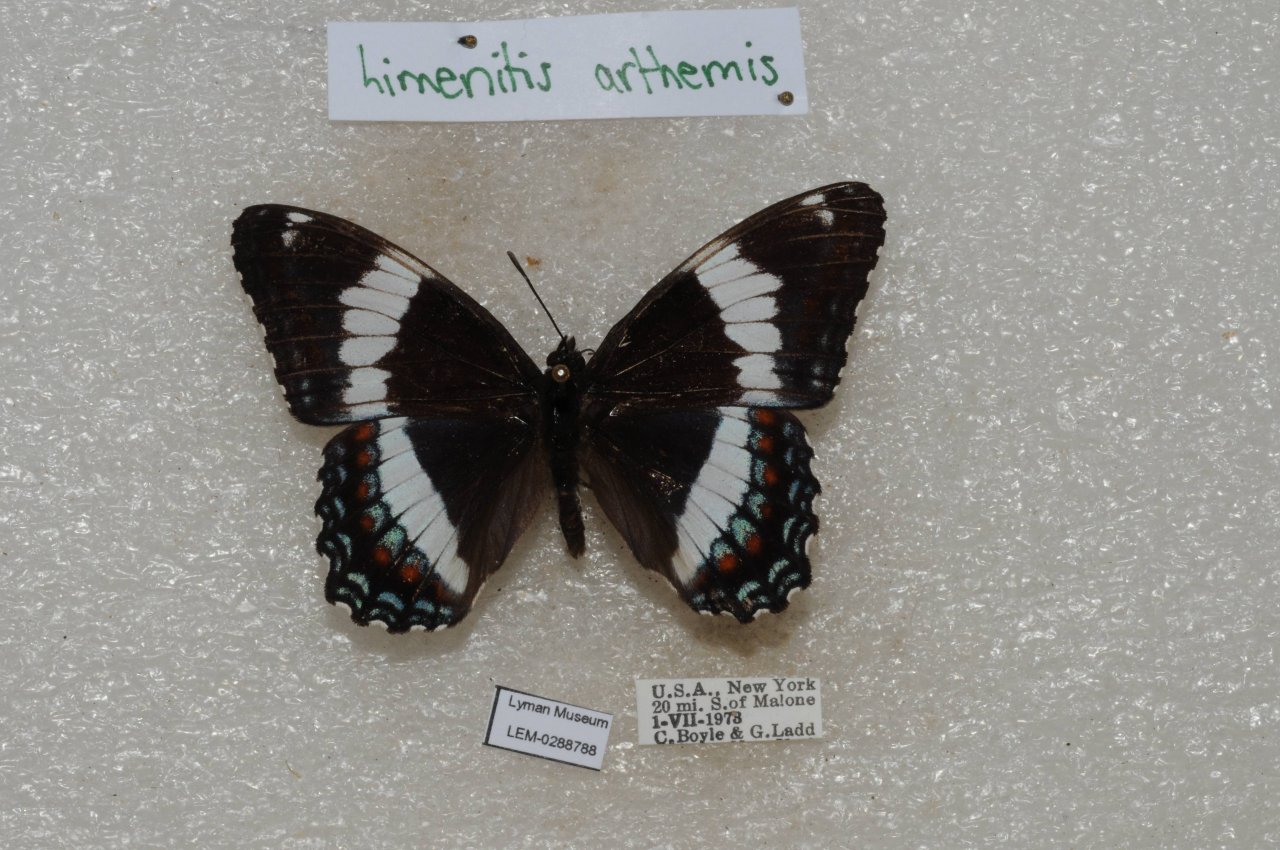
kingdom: Animalia
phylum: Arthropoda
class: Insecta
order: Lepidoptera
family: Nymphalidae
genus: Limenitis
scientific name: Limenitis arthemis
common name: Red-spotted Admiral
